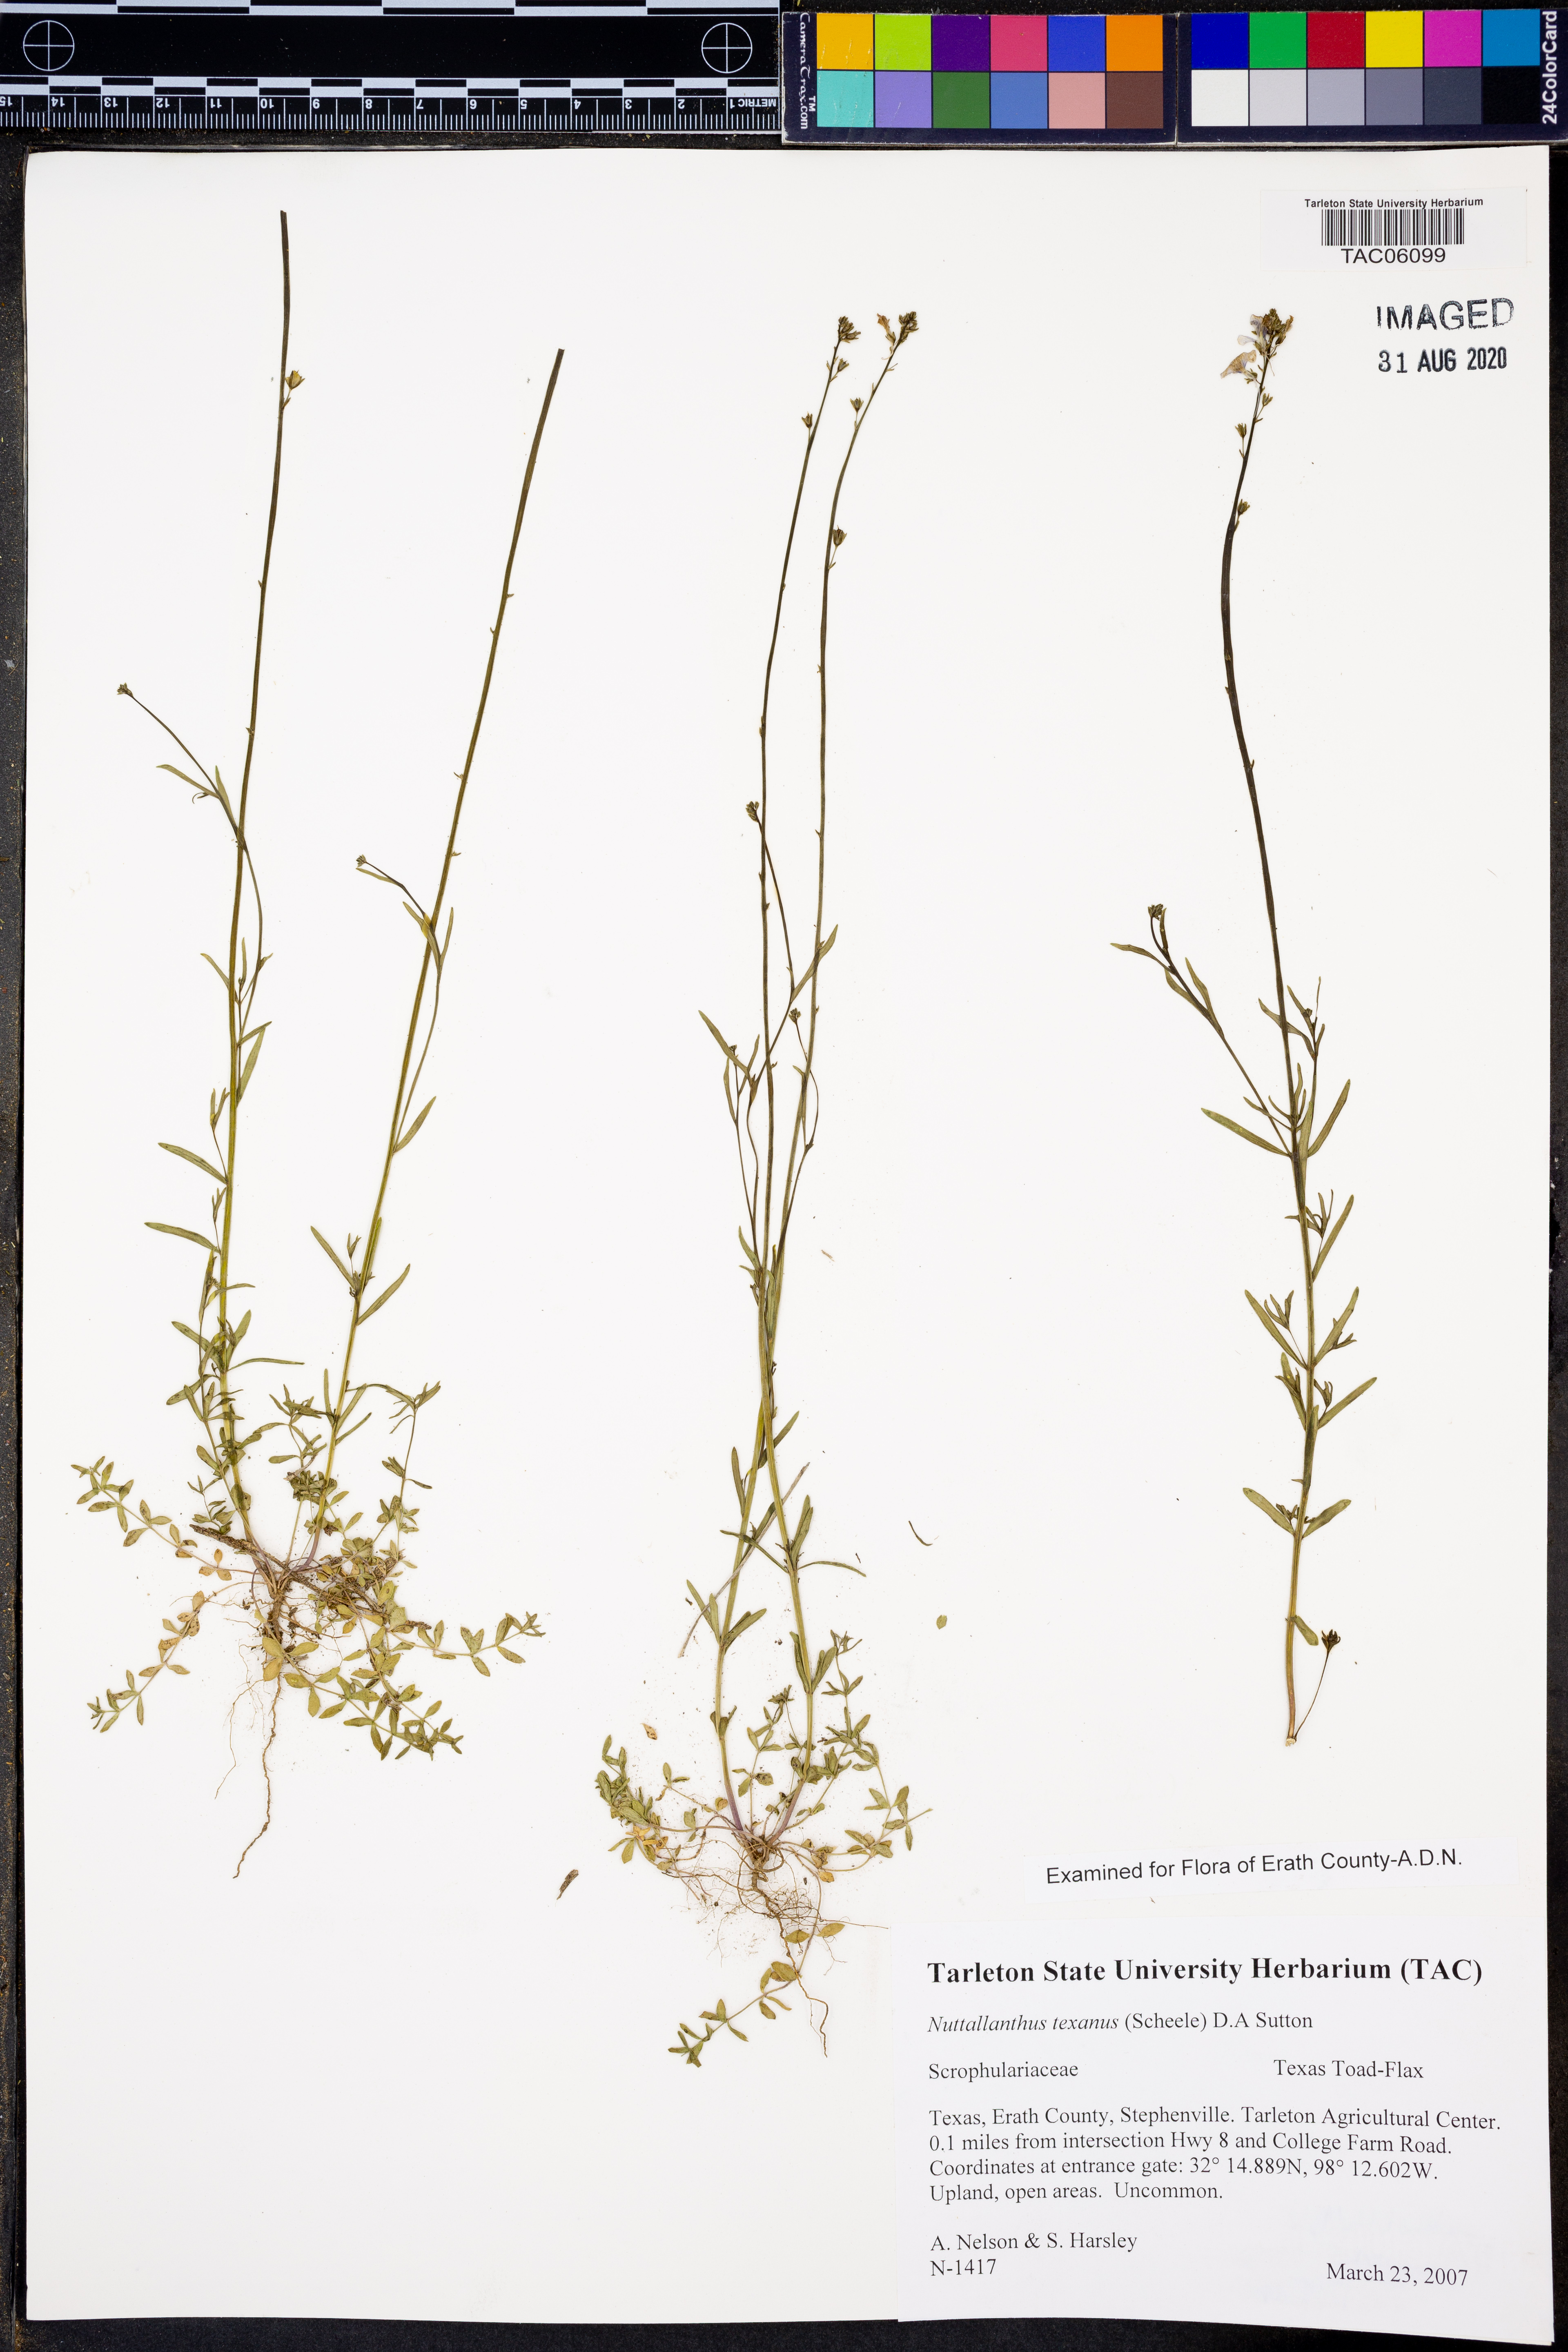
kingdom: Plantae
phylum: Tracheophyta
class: Magnoliopsida
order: Lamiales
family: Plantaginaceae
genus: Nuttallanthus
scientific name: Nuttallanthus texanus
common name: Texas toadflax
